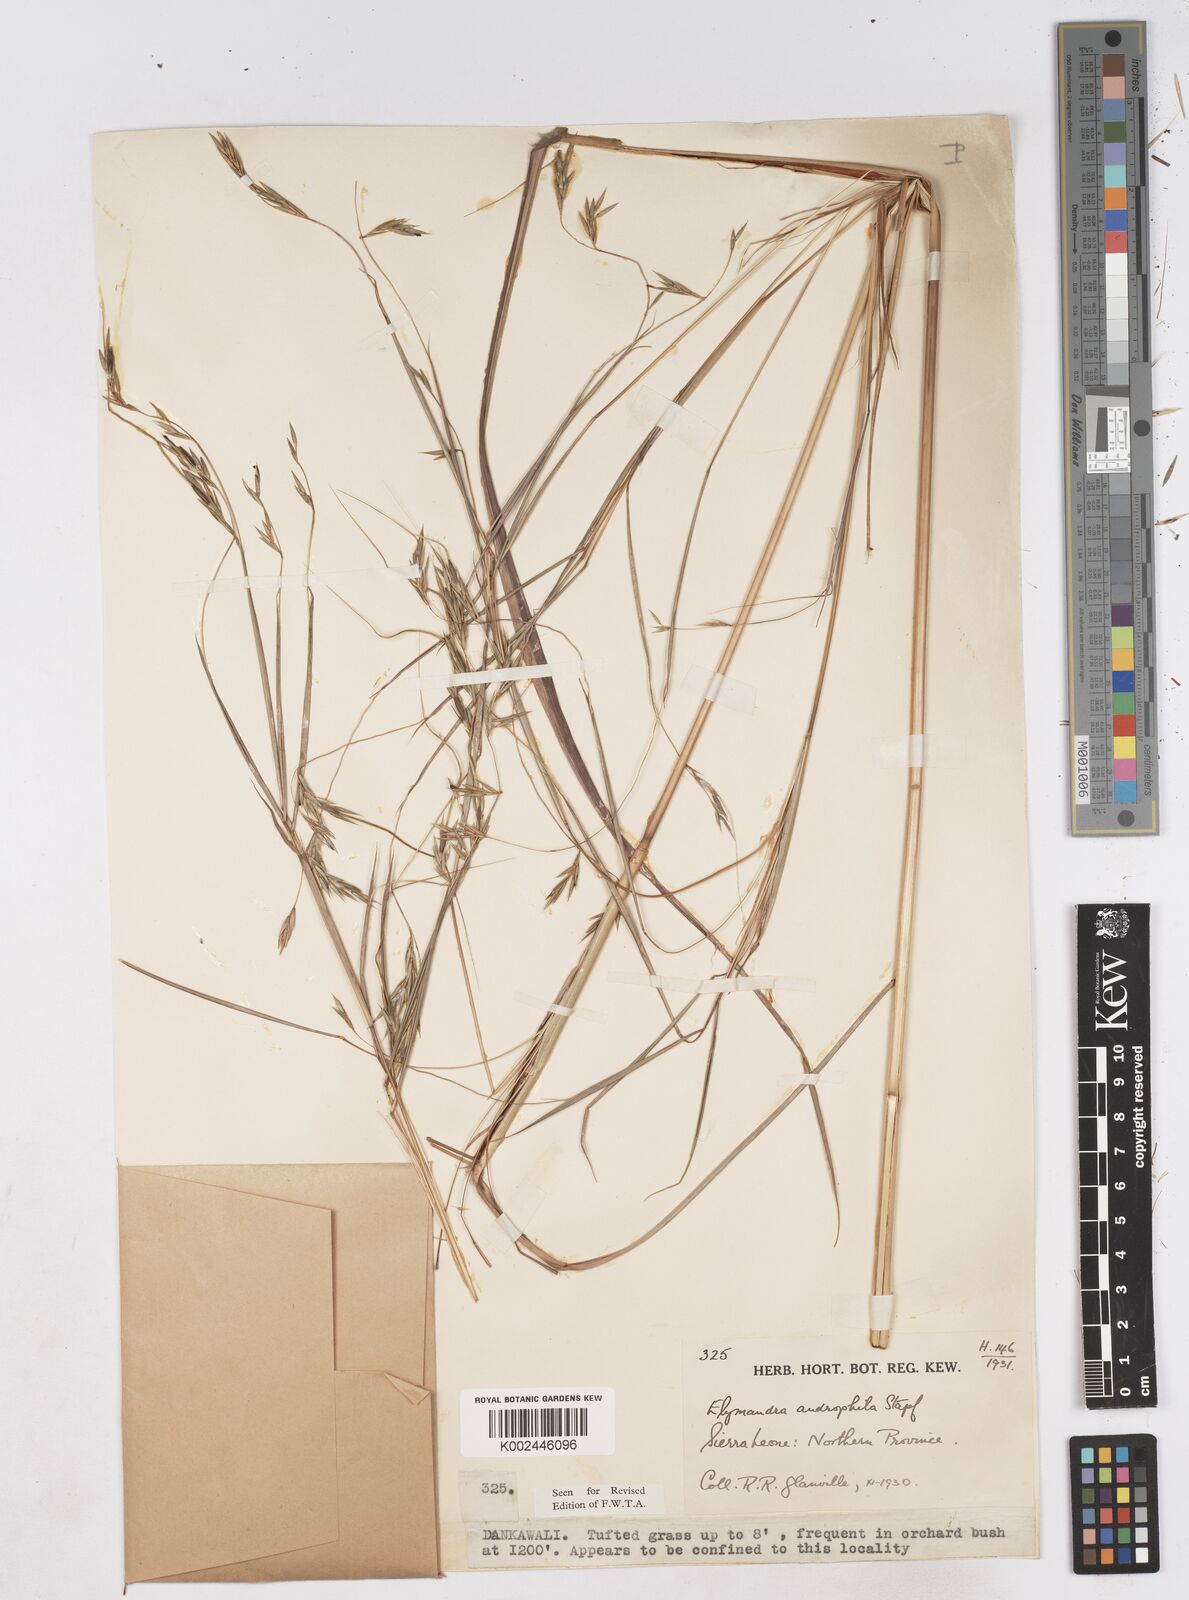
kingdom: Plantae
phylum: Tracheophyta
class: Liliopsida
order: Poales
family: Poaceae
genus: Elymandra
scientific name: Elymandra androphila
